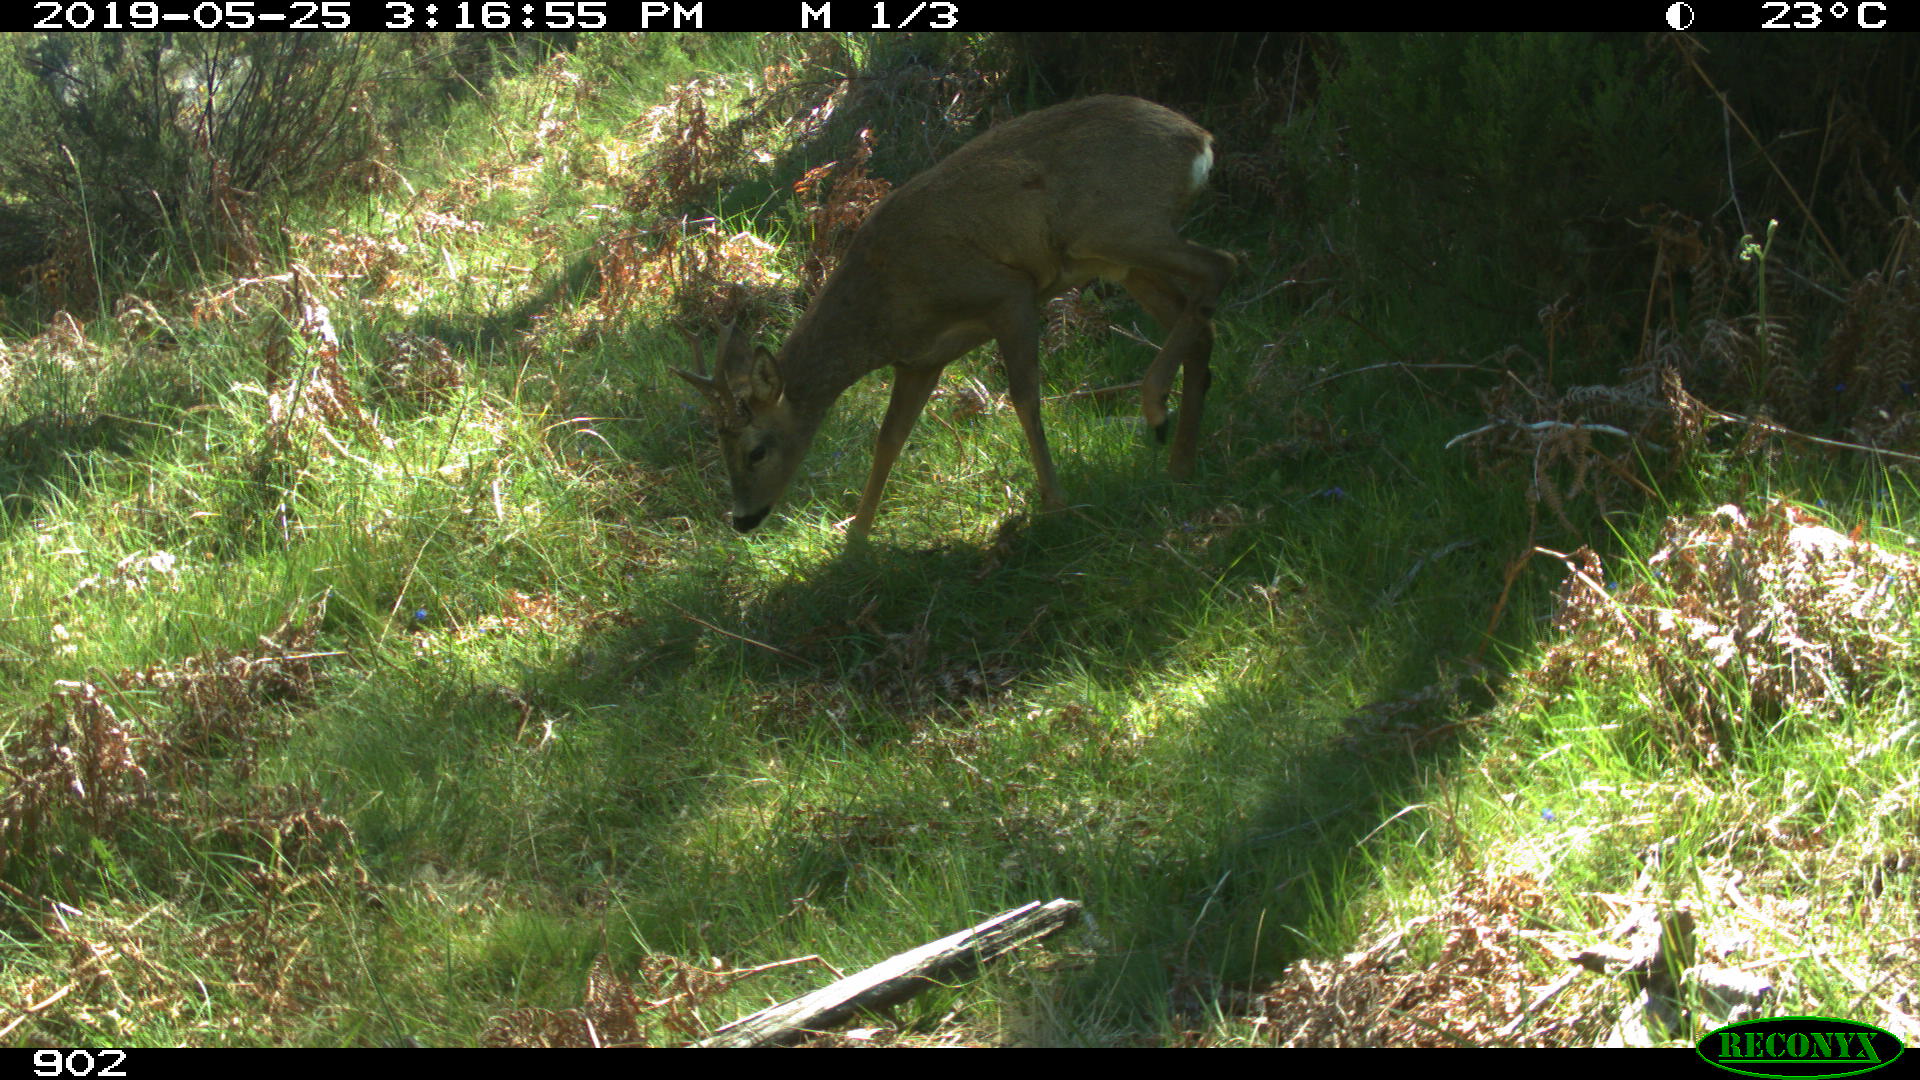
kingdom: Animalia
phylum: Chordata
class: Mammalia
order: Artiodactyla
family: Cervidae
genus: Capreolus
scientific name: Capreolus capreolus
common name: Western roe deer
